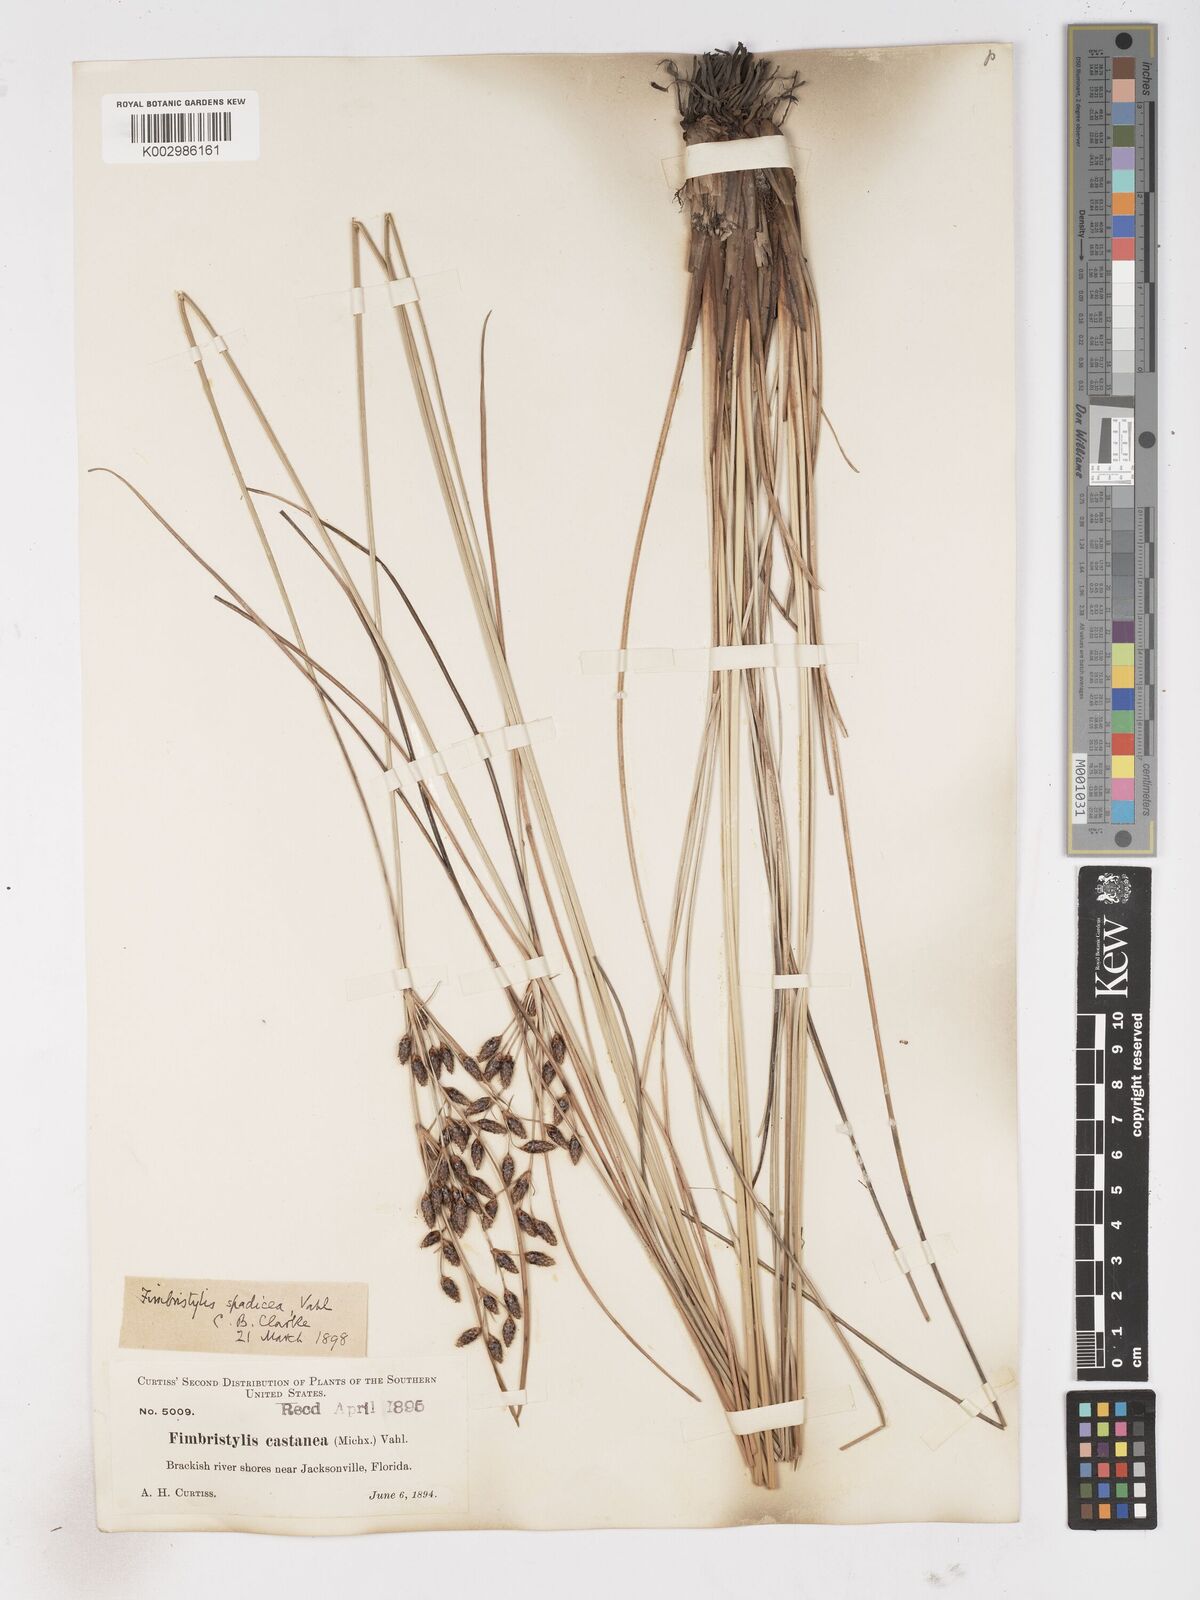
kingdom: Plantae
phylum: Tracheophyta
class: Liliopsida
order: Poales
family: Cyperaceae
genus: Fimbristylis
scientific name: Fimbristylis spadicea
